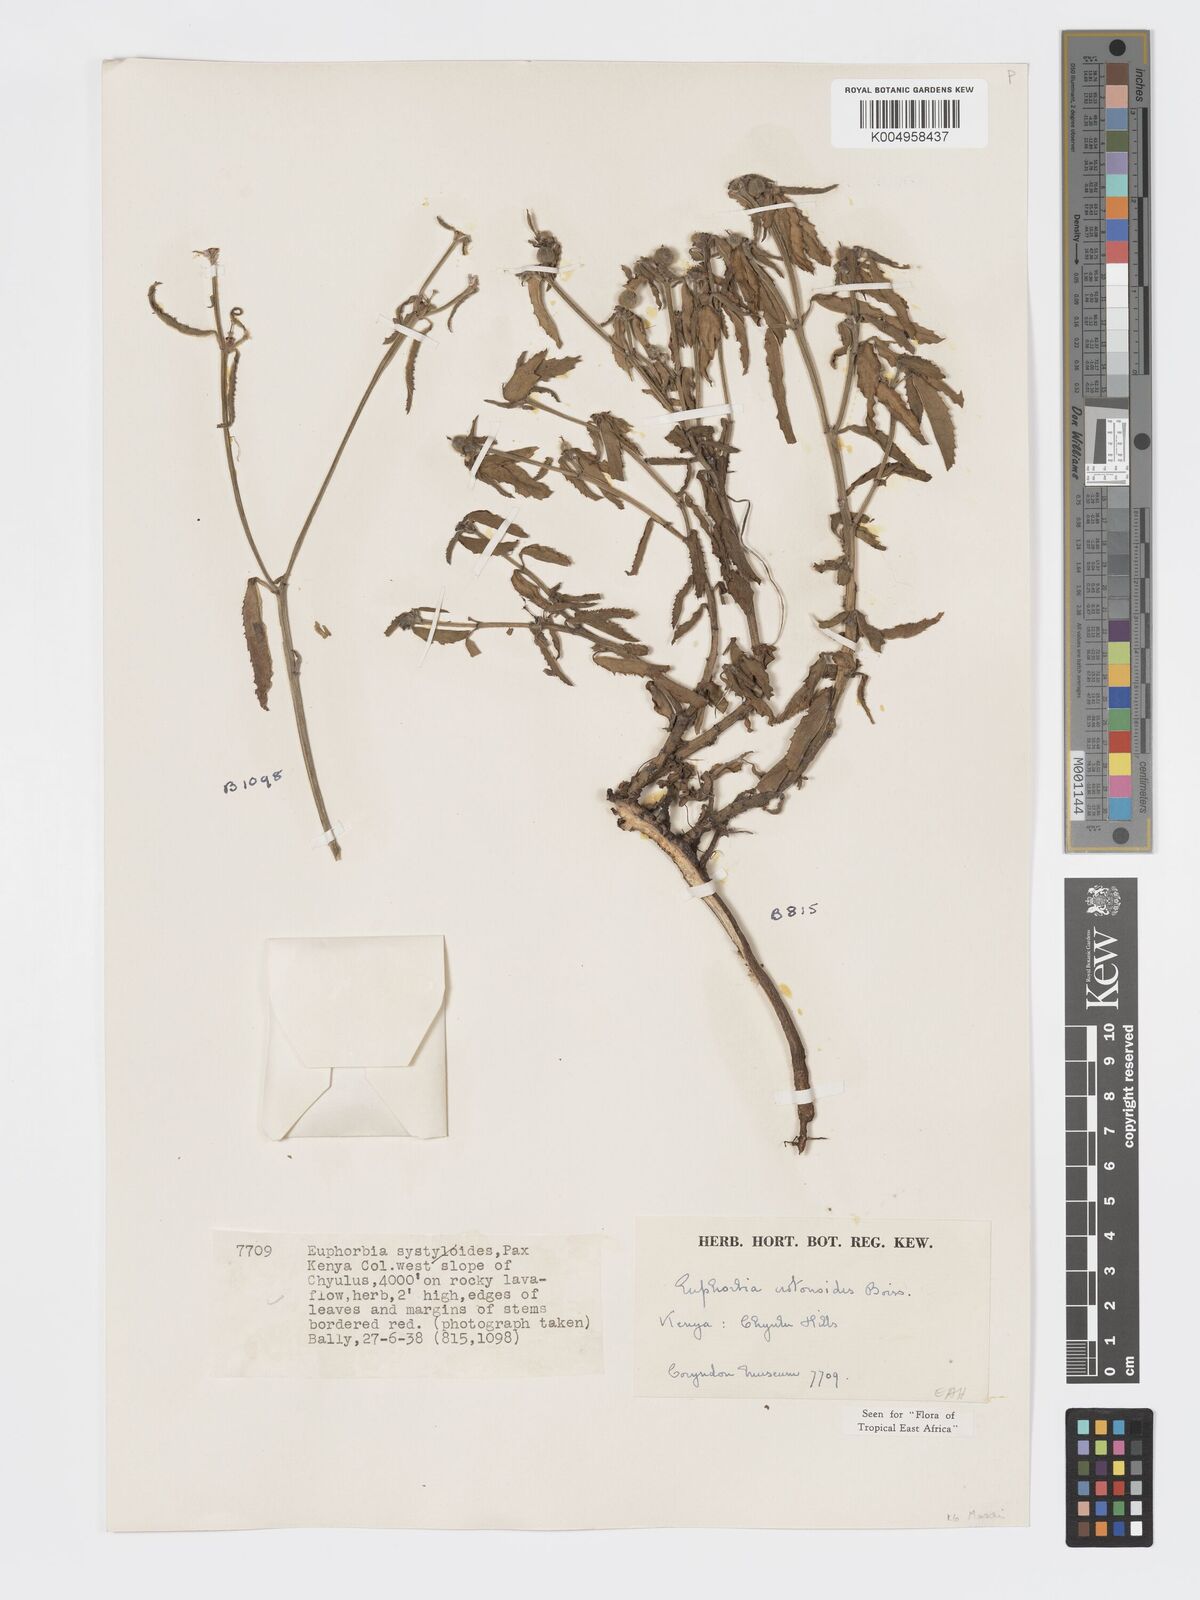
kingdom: Plantae
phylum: Tracheophyta
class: Magnoliopsida
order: Malpighiales
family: Euphorbiaceae
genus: Euphorbia
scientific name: Euphorbia crotonoides
